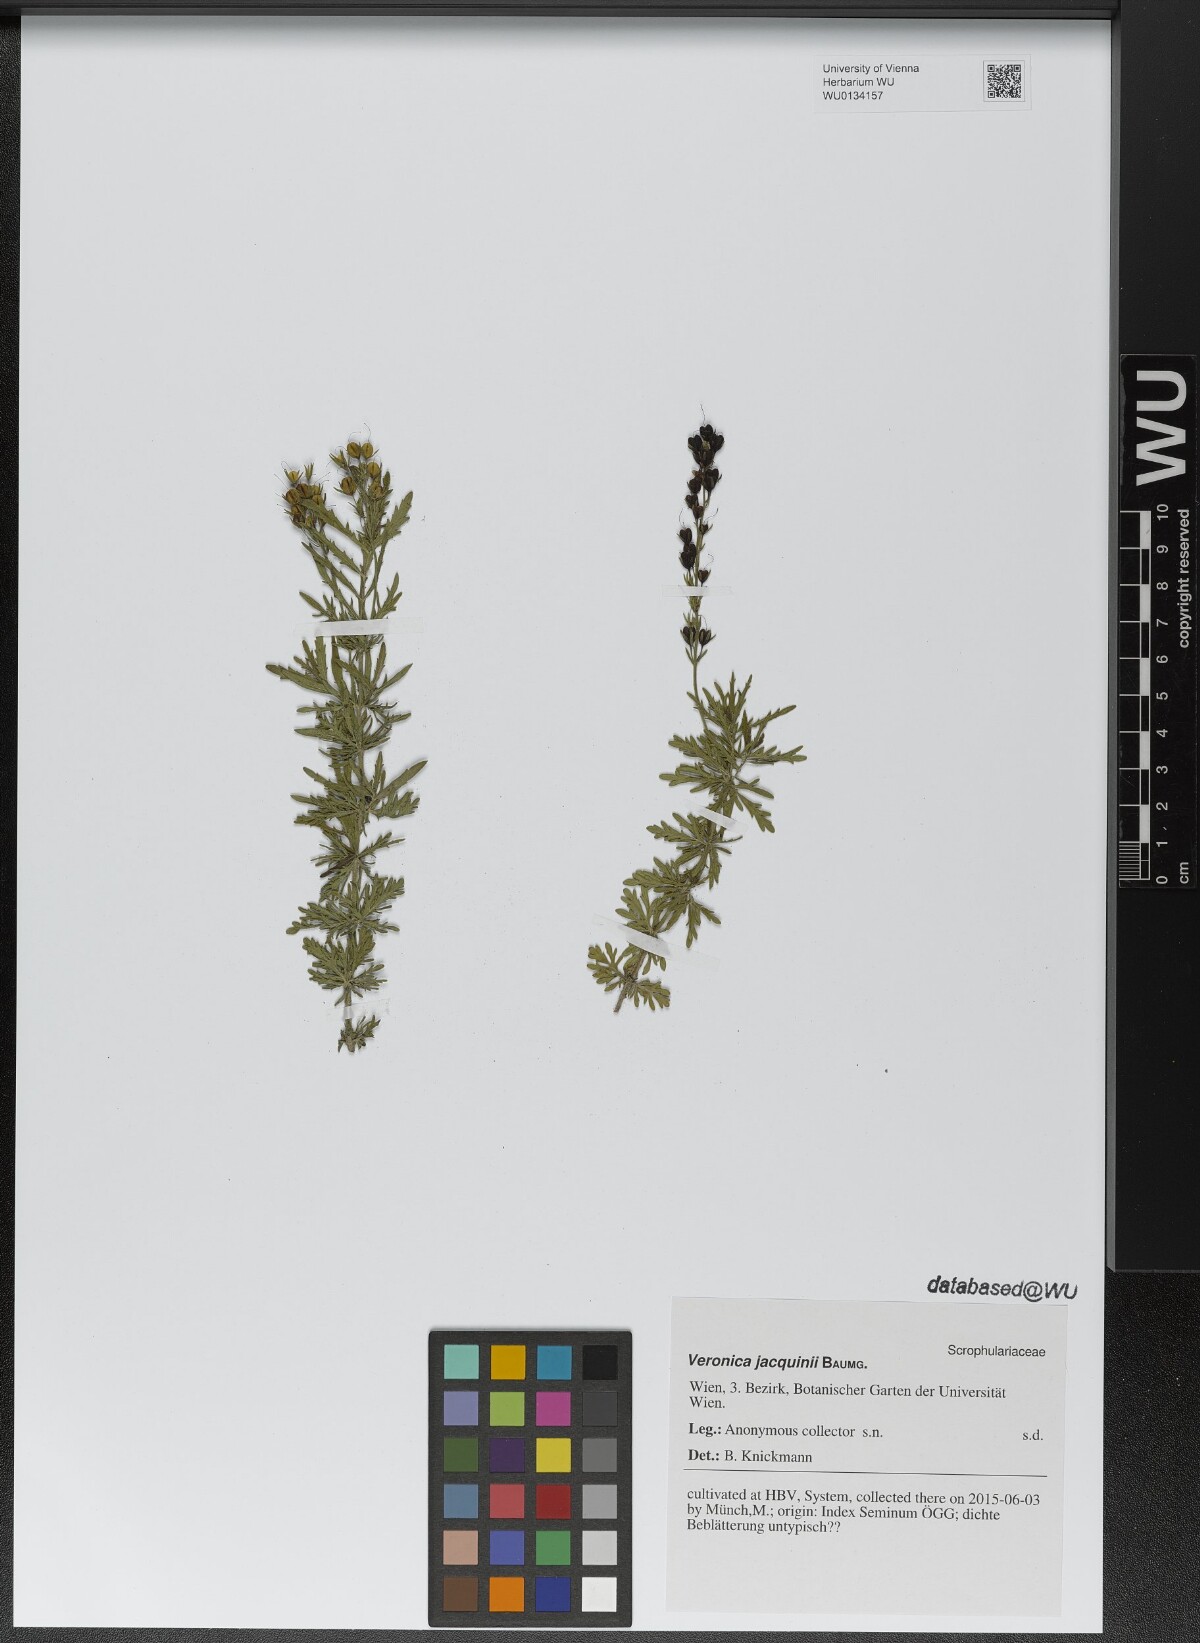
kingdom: Plantae
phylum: Tracheophyta
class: Magnoliopsida
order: Lamiales
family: Plantaginaceae
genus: Veronica
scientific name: Veronica austriaca
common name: Large speedwell
